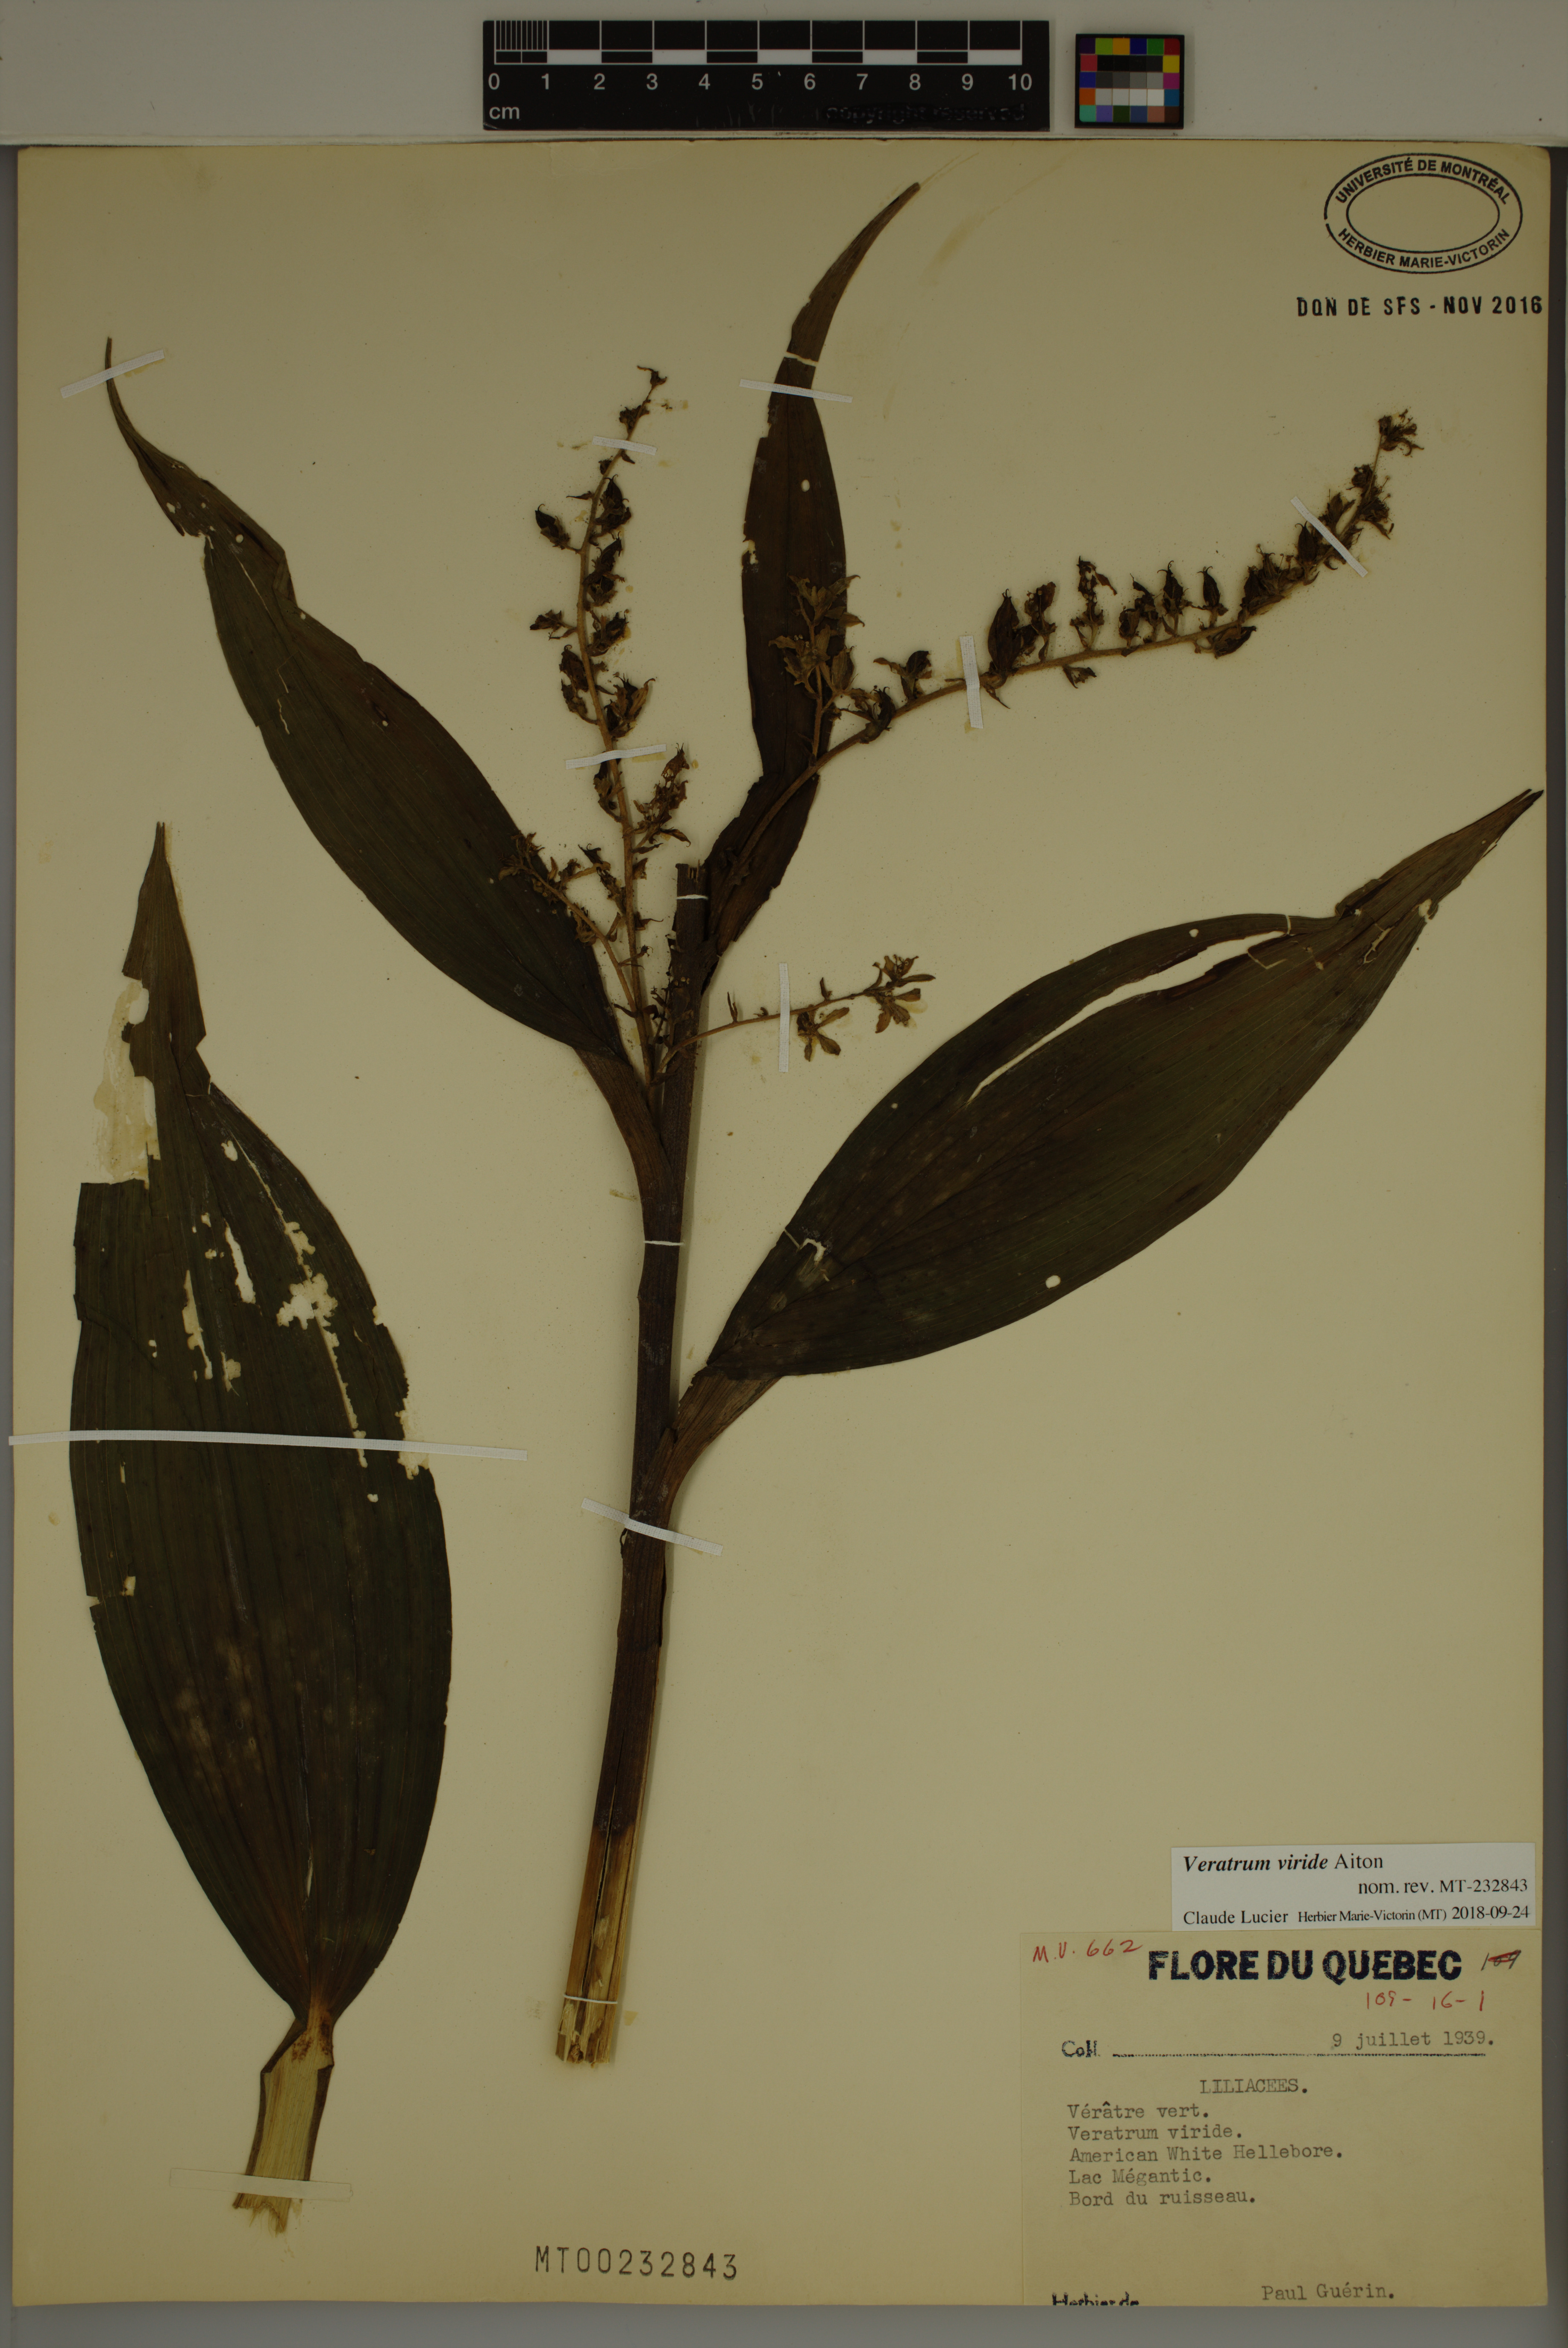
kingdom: Plantae
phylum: Tracheophyta
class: Liliopsida
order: Liliales
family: Melanthiaceae
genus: Veratrum
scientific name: Veratrum viride
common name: American false hellebore
